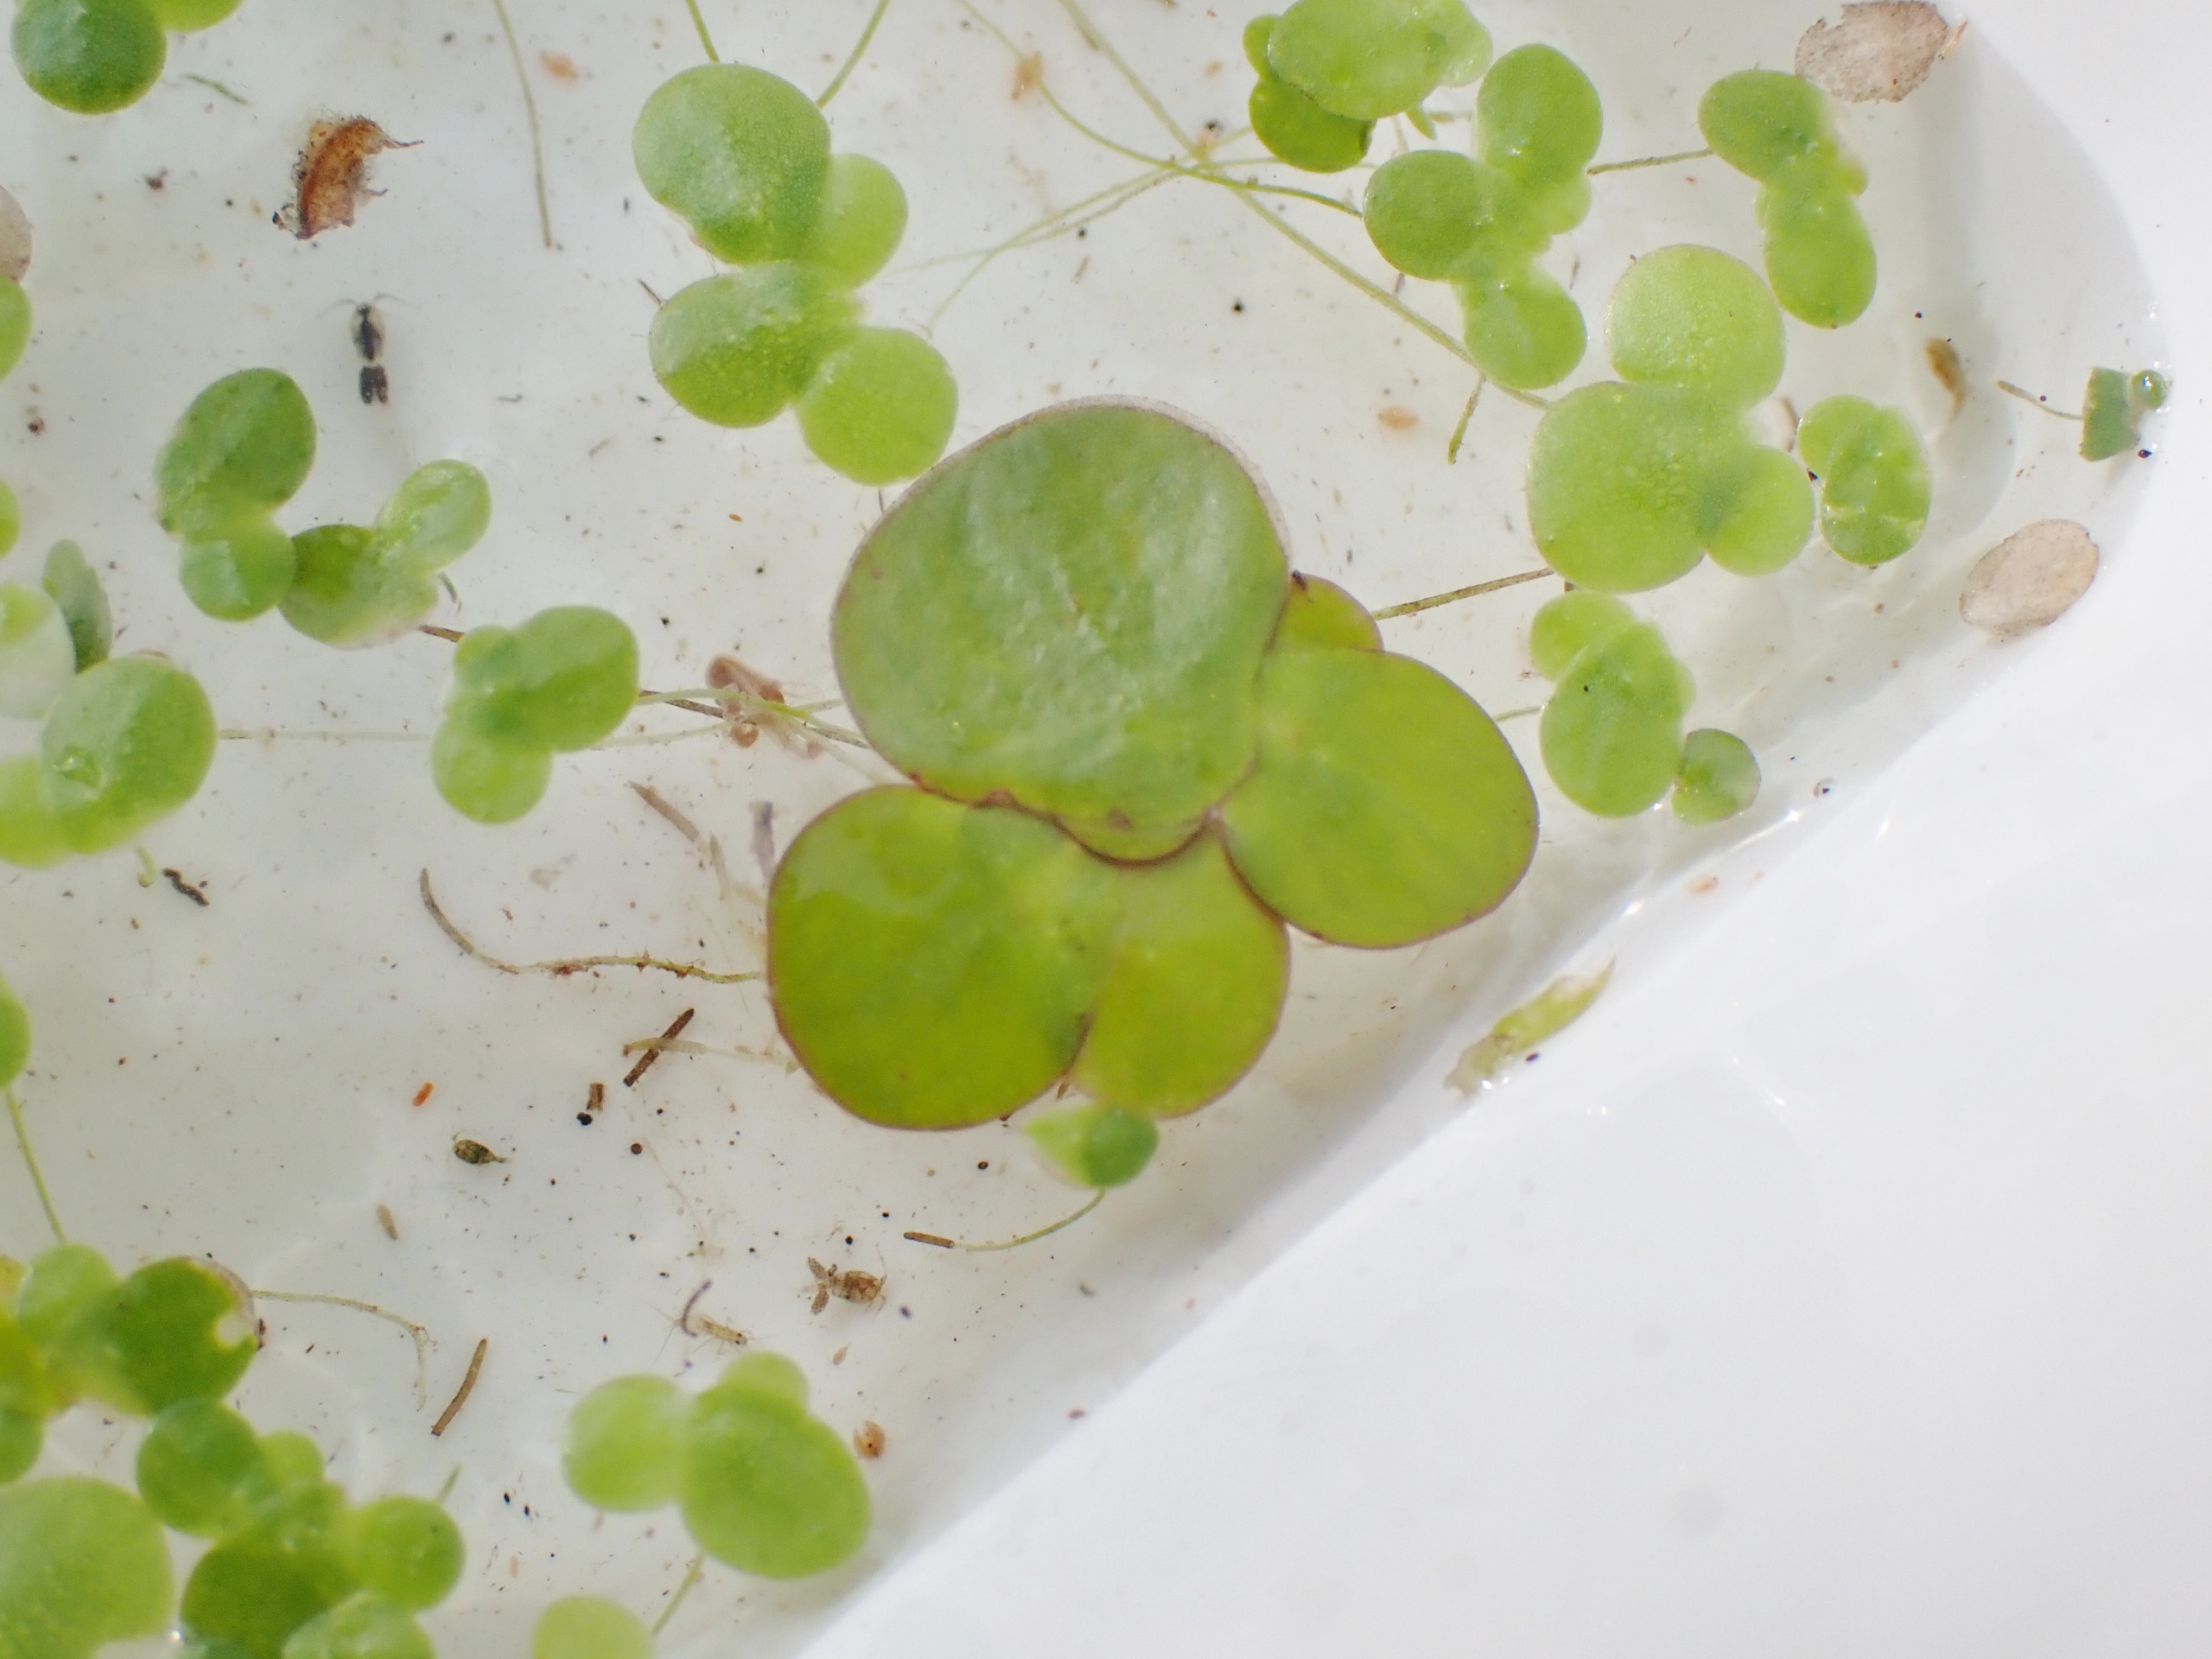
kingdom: Plantae
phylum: Tracheophyta
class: Liliopsida
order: Alismatales
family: Araceae
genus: Spirodela
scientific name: Spirodela polyrhiza
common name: Stor andemad
